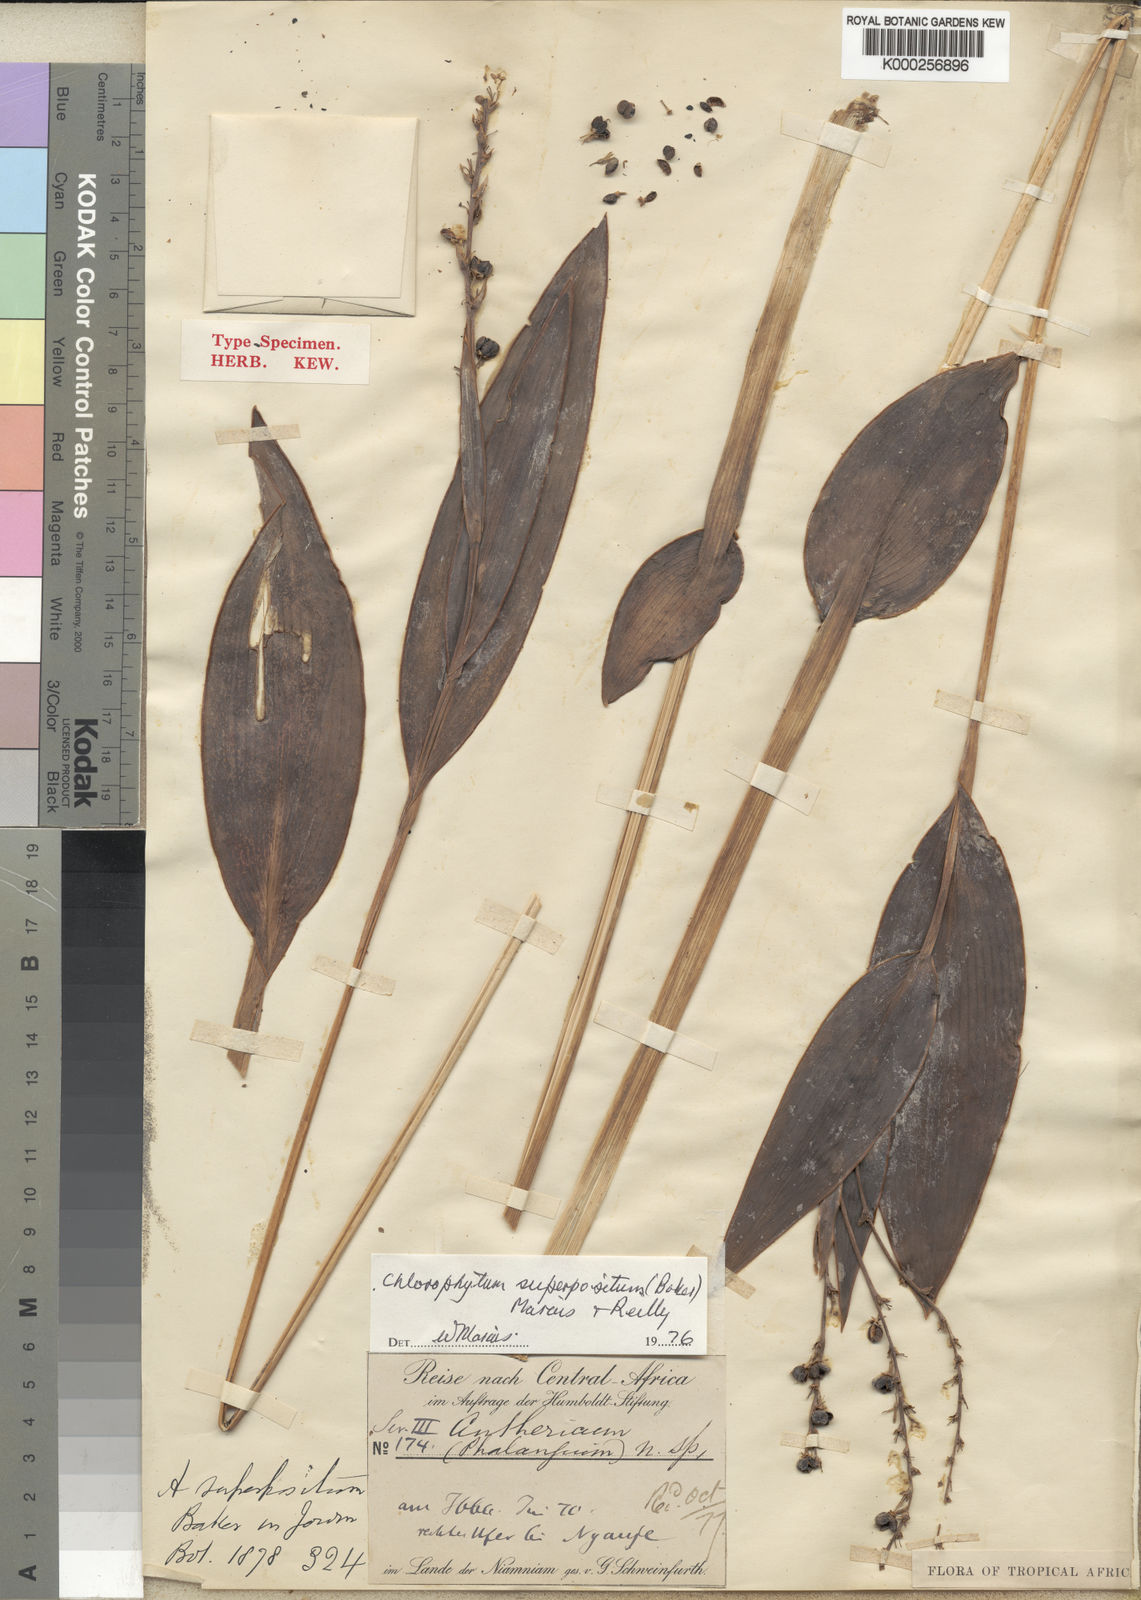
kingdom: Plantae
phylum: Tracheophyta
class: Liliopsida
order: Asparagales
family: Asparagaceae
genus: Chlorophytum
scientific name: Chlorophytum superpositum
